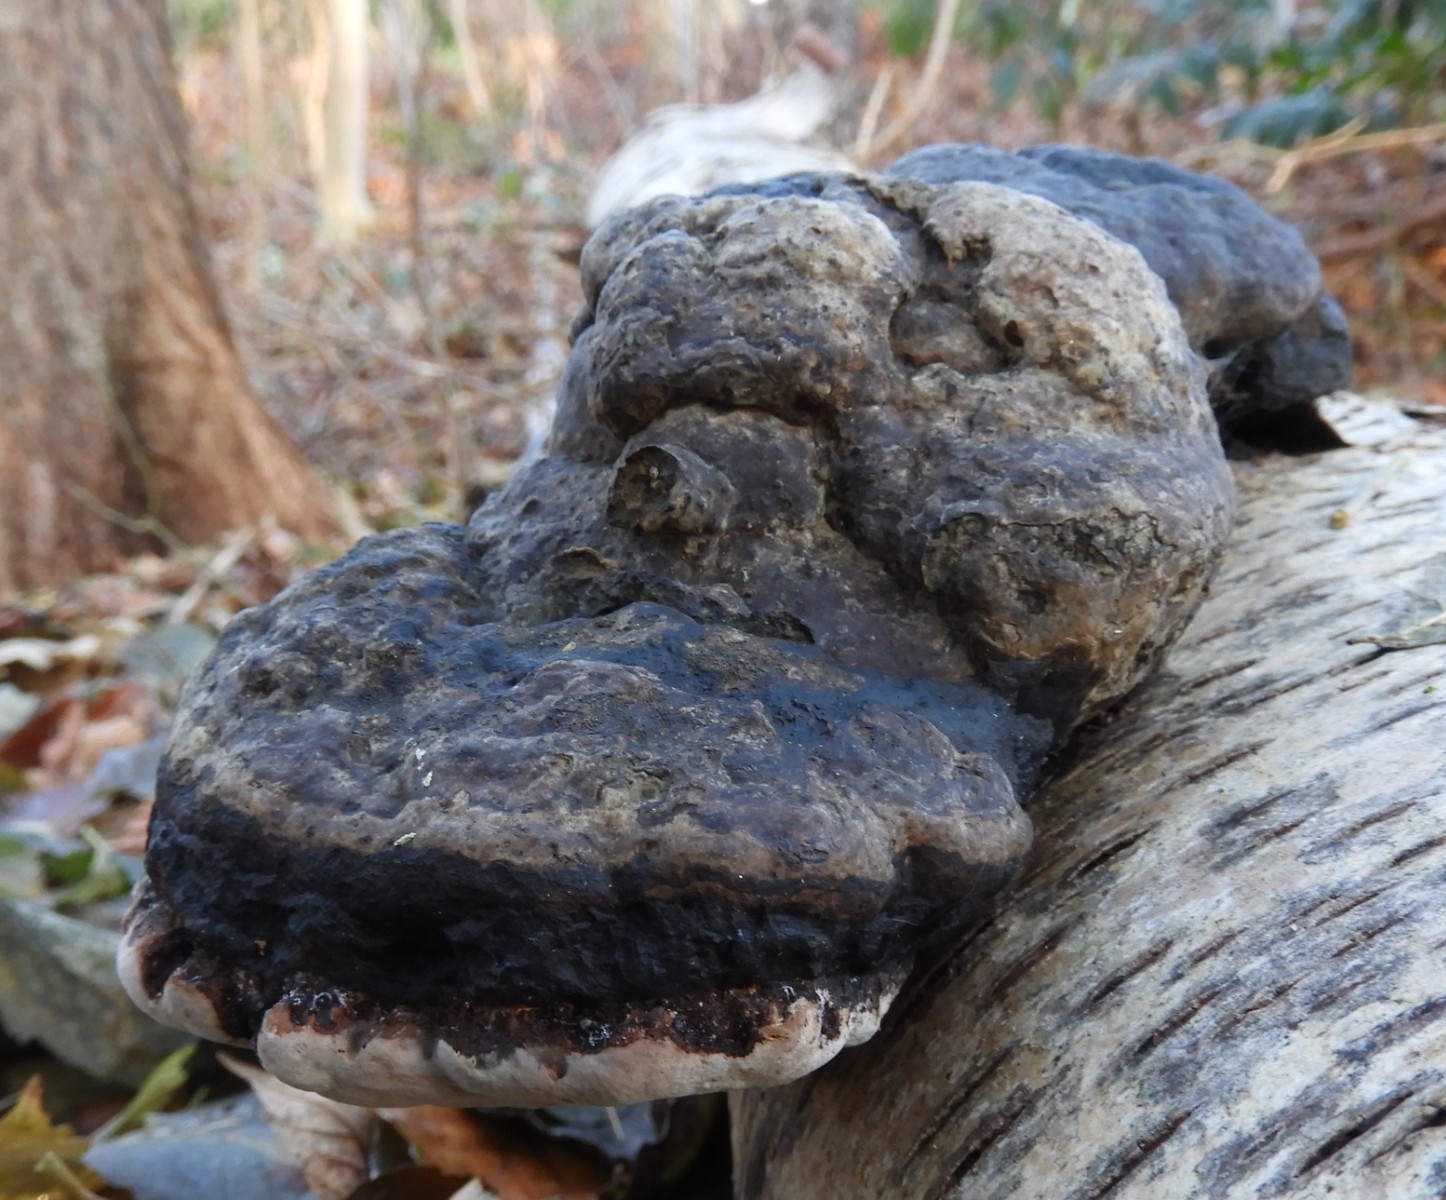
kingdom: Fungi
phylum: Basidiomycota
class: Agaricomycetes
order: Polyporales
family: Polyporaceae
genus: Fomes
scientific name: Fomes fomentarius
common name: tøndersvamp
